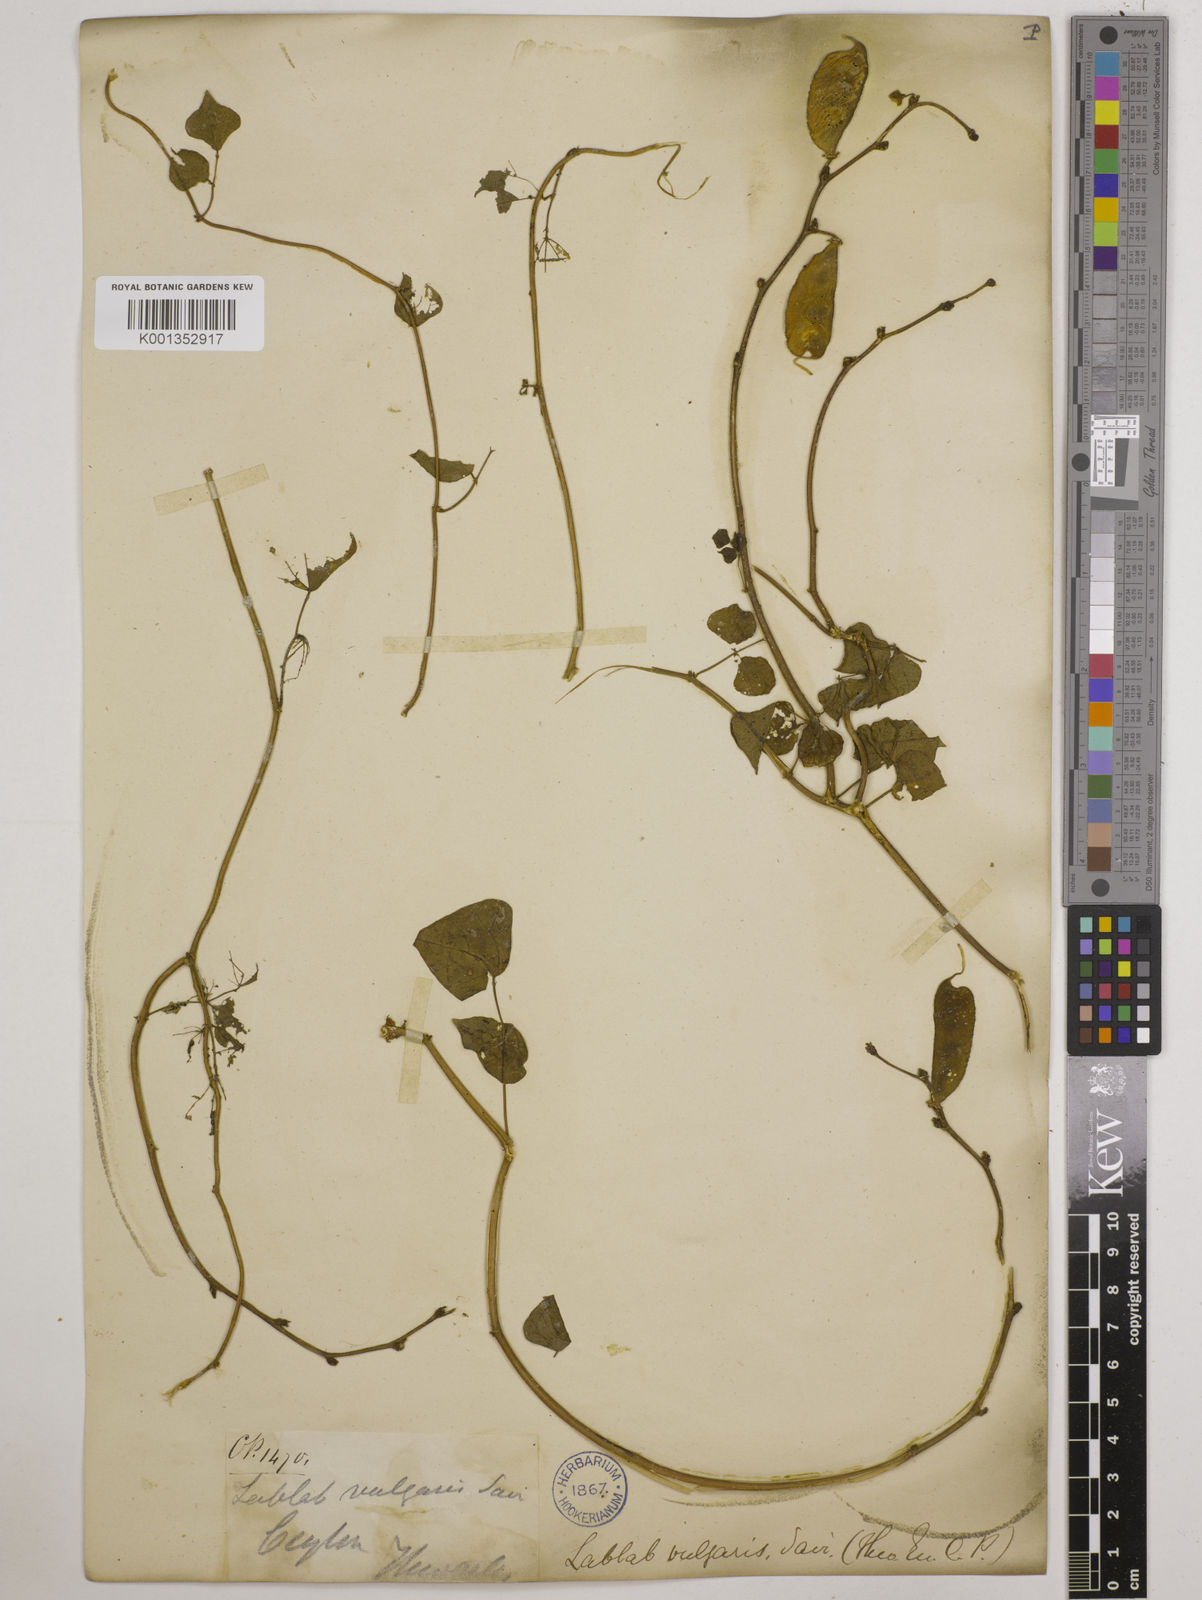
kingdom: Plantae
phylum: Tracheophyta
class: Magnoliopsida
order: Fabales
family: Fabaceae
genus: Lablab
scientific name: Lablab purpureus
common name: Lablab-bean
